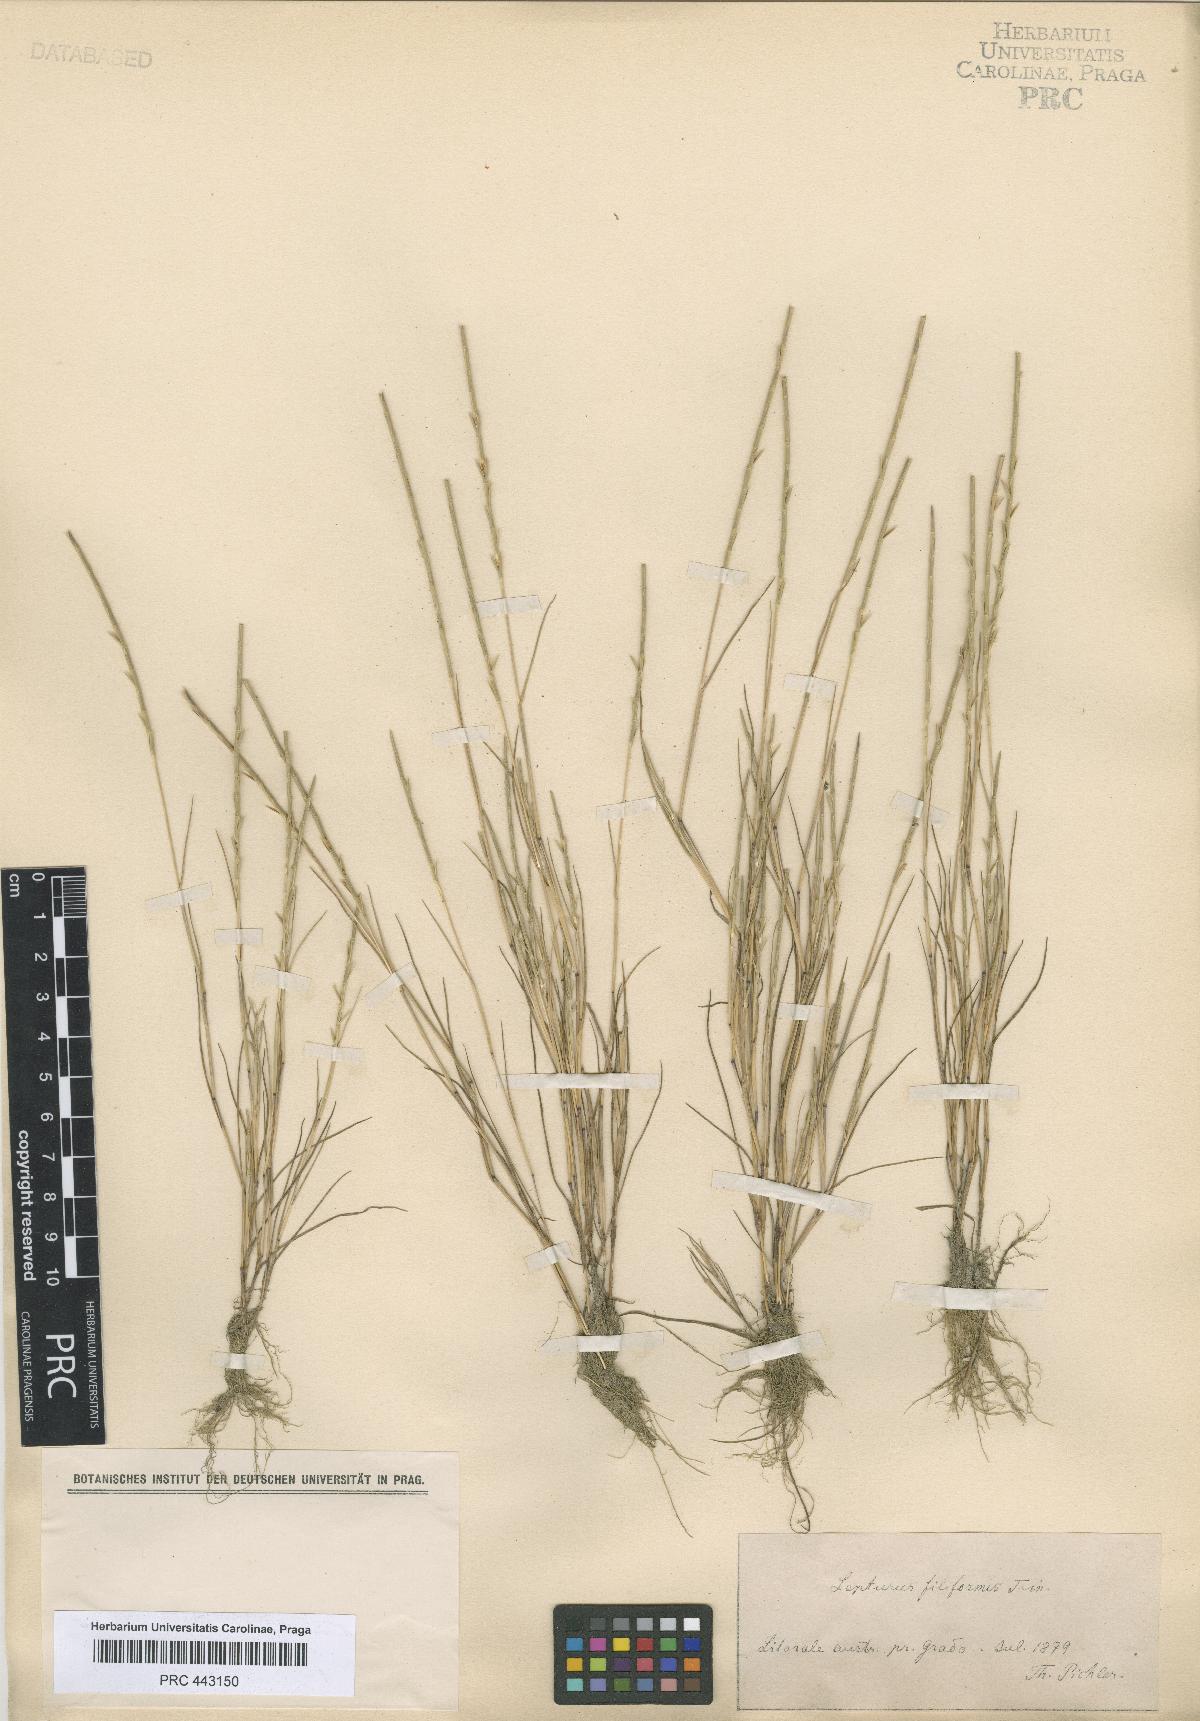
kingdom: Plantae
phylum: Tracheophyta
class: Liliopsida
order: Poales
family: Poaceae
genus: Parapholis
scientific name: Parapholis filiformis
